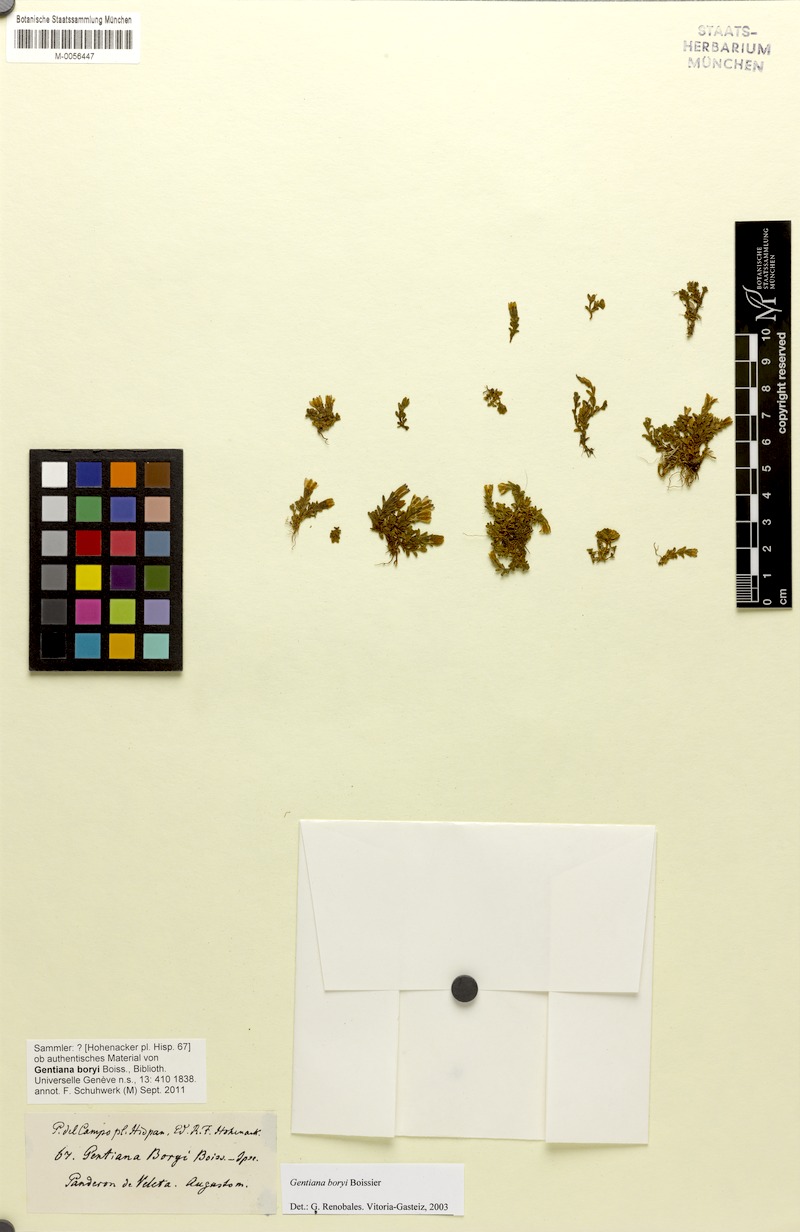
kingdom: Plantae
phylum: Tracheophyta
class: Magnoliopsida
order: Gentianales
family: Gentianaceae
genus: Gentiana
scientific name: Gentiana boryi
